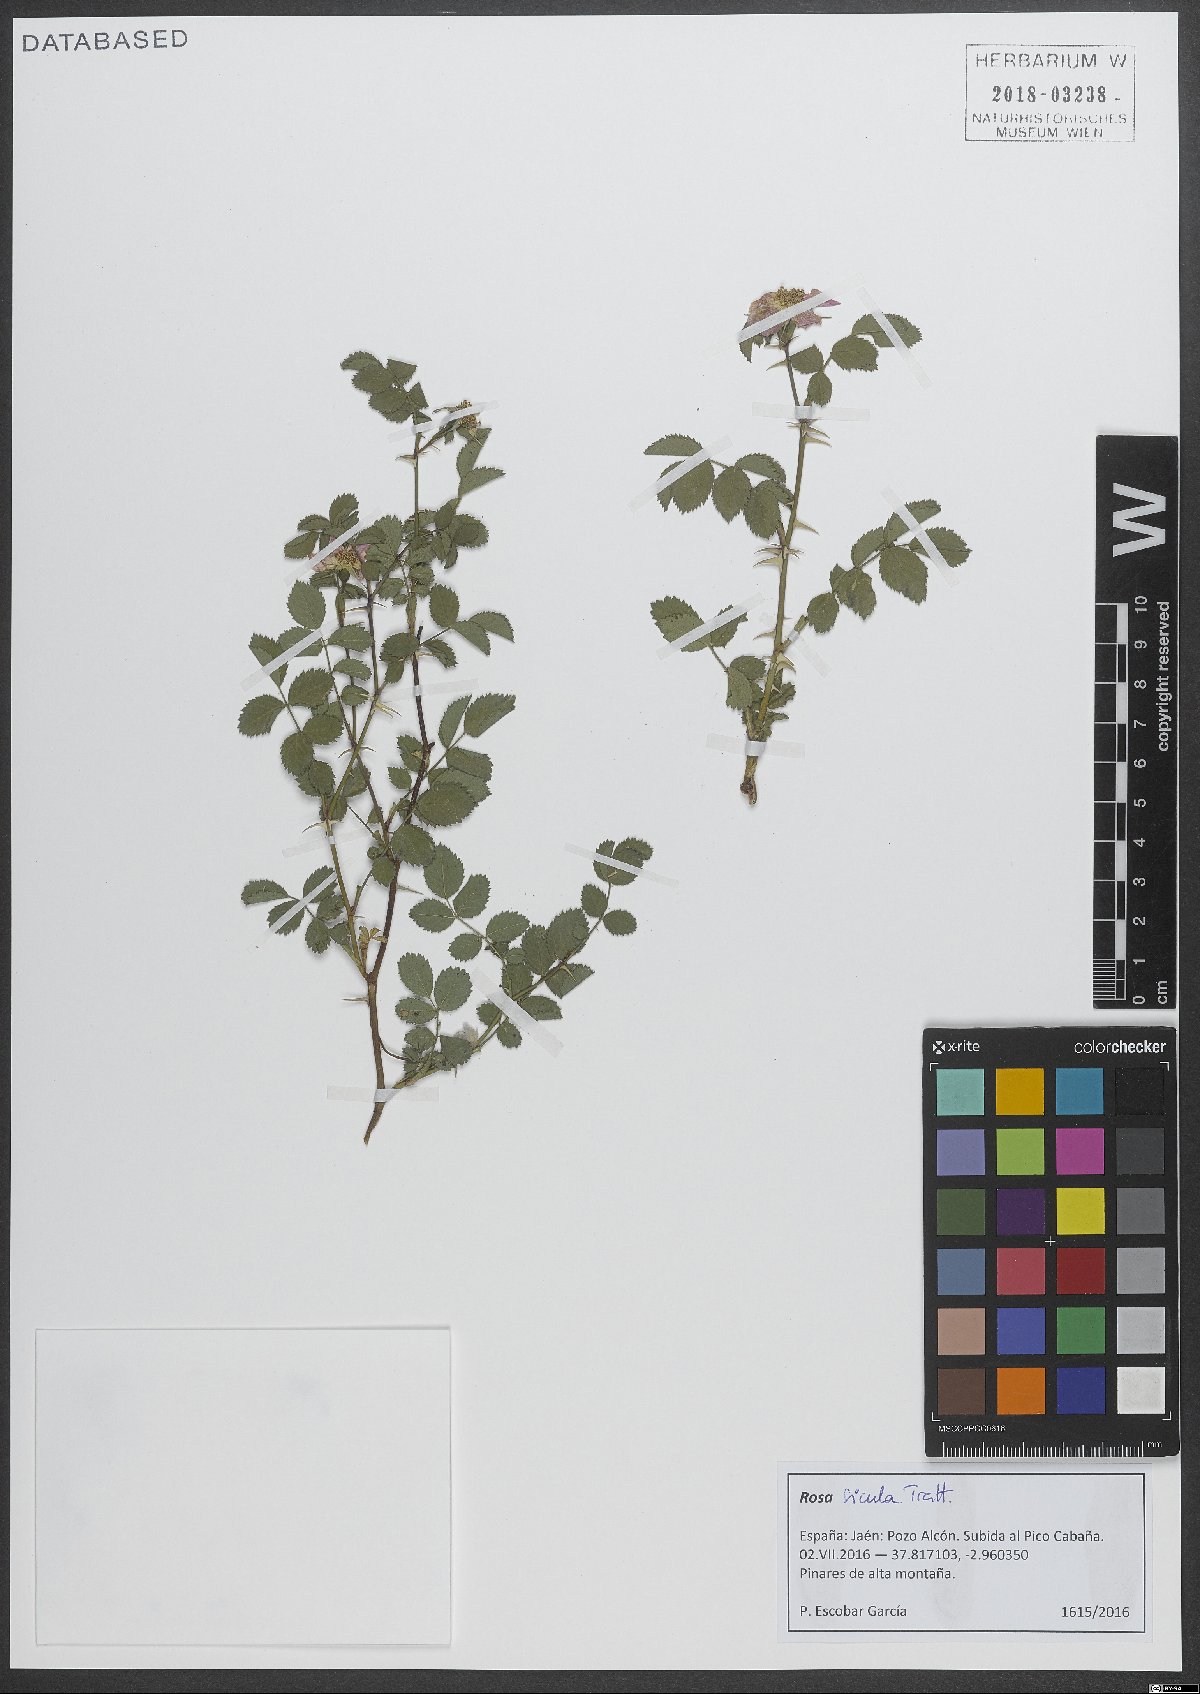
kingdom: Plantae
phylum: Tracheophyta
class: Magnoliopsida
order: Rosales
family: Rosaceae
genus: Rosa
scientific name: Rosa pulverulenta
